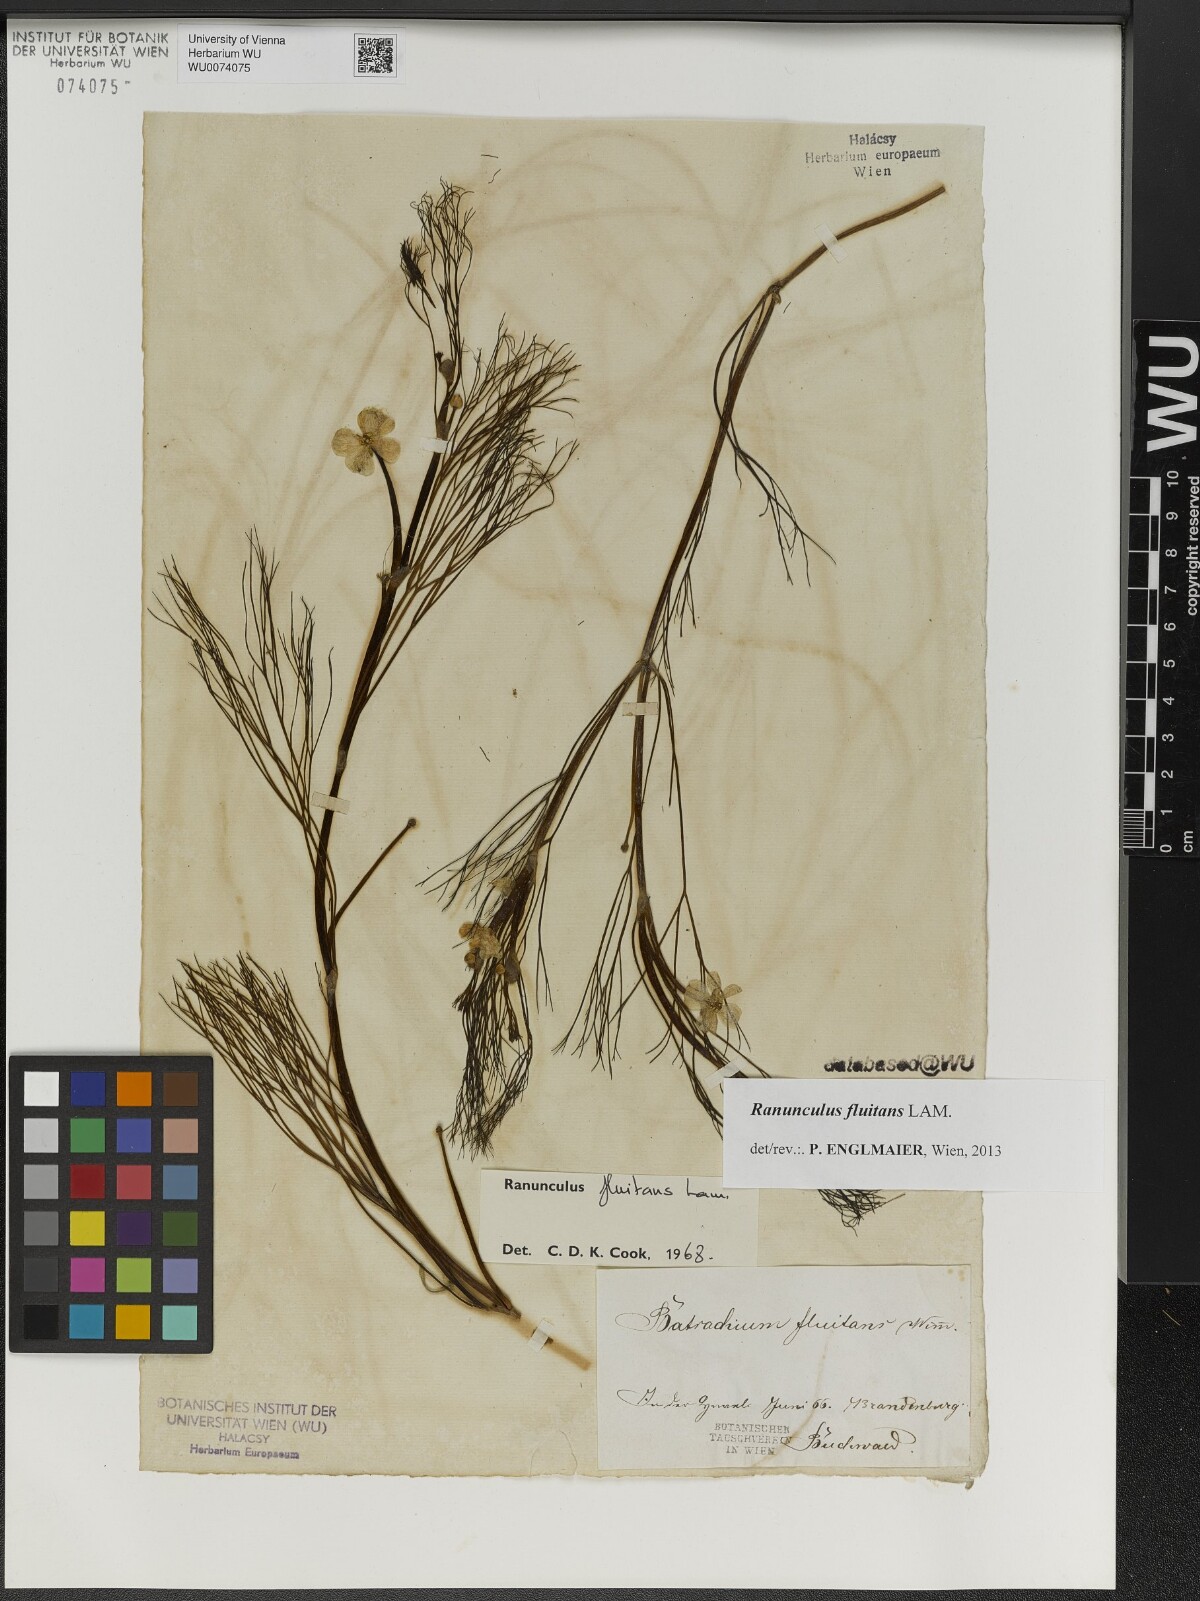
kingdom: Plantae
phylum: Tracheophyta
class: Magnoliopsida
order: Ranunculales
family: Ranunculaceae
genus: Ranunculus
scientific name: Ranunculus fluitans
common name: River water-crowfoot
